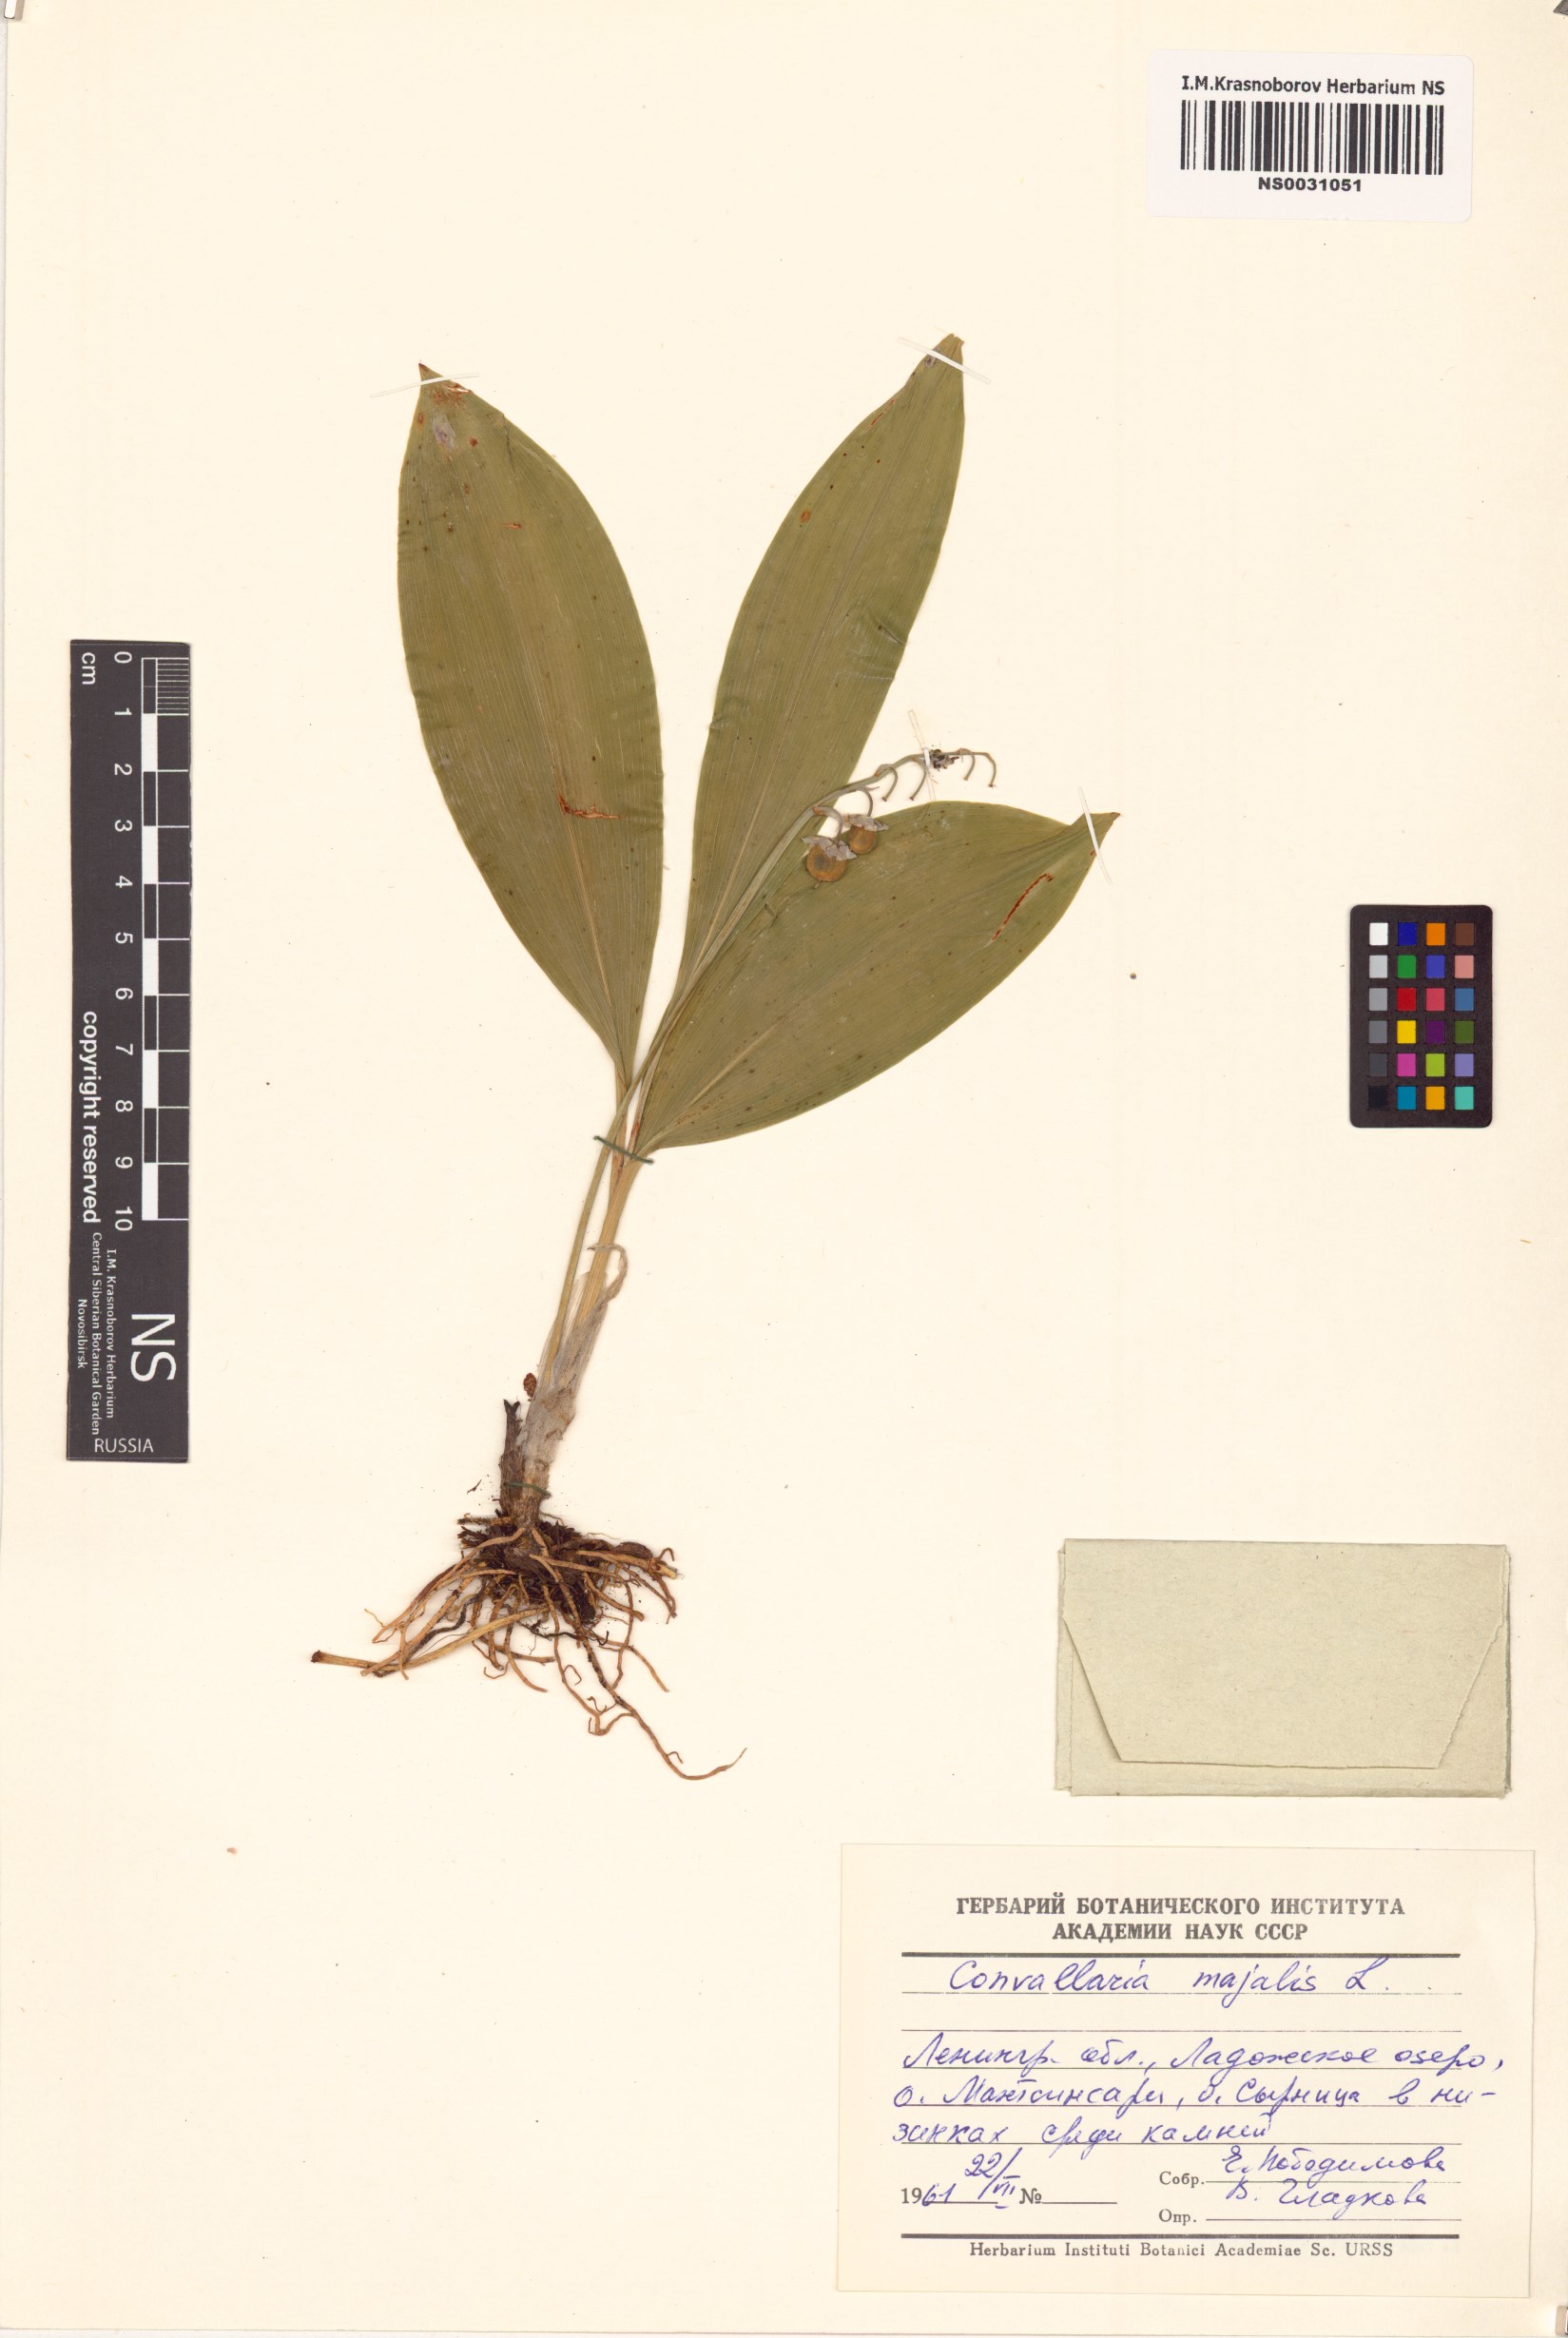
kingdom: Plantae
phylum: Tracheophyta
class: Liliopsida
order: Asparagales
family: Asparagaceae
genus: Convallaria
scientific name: Convallaria majalis
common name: Lily-of-the-valley
